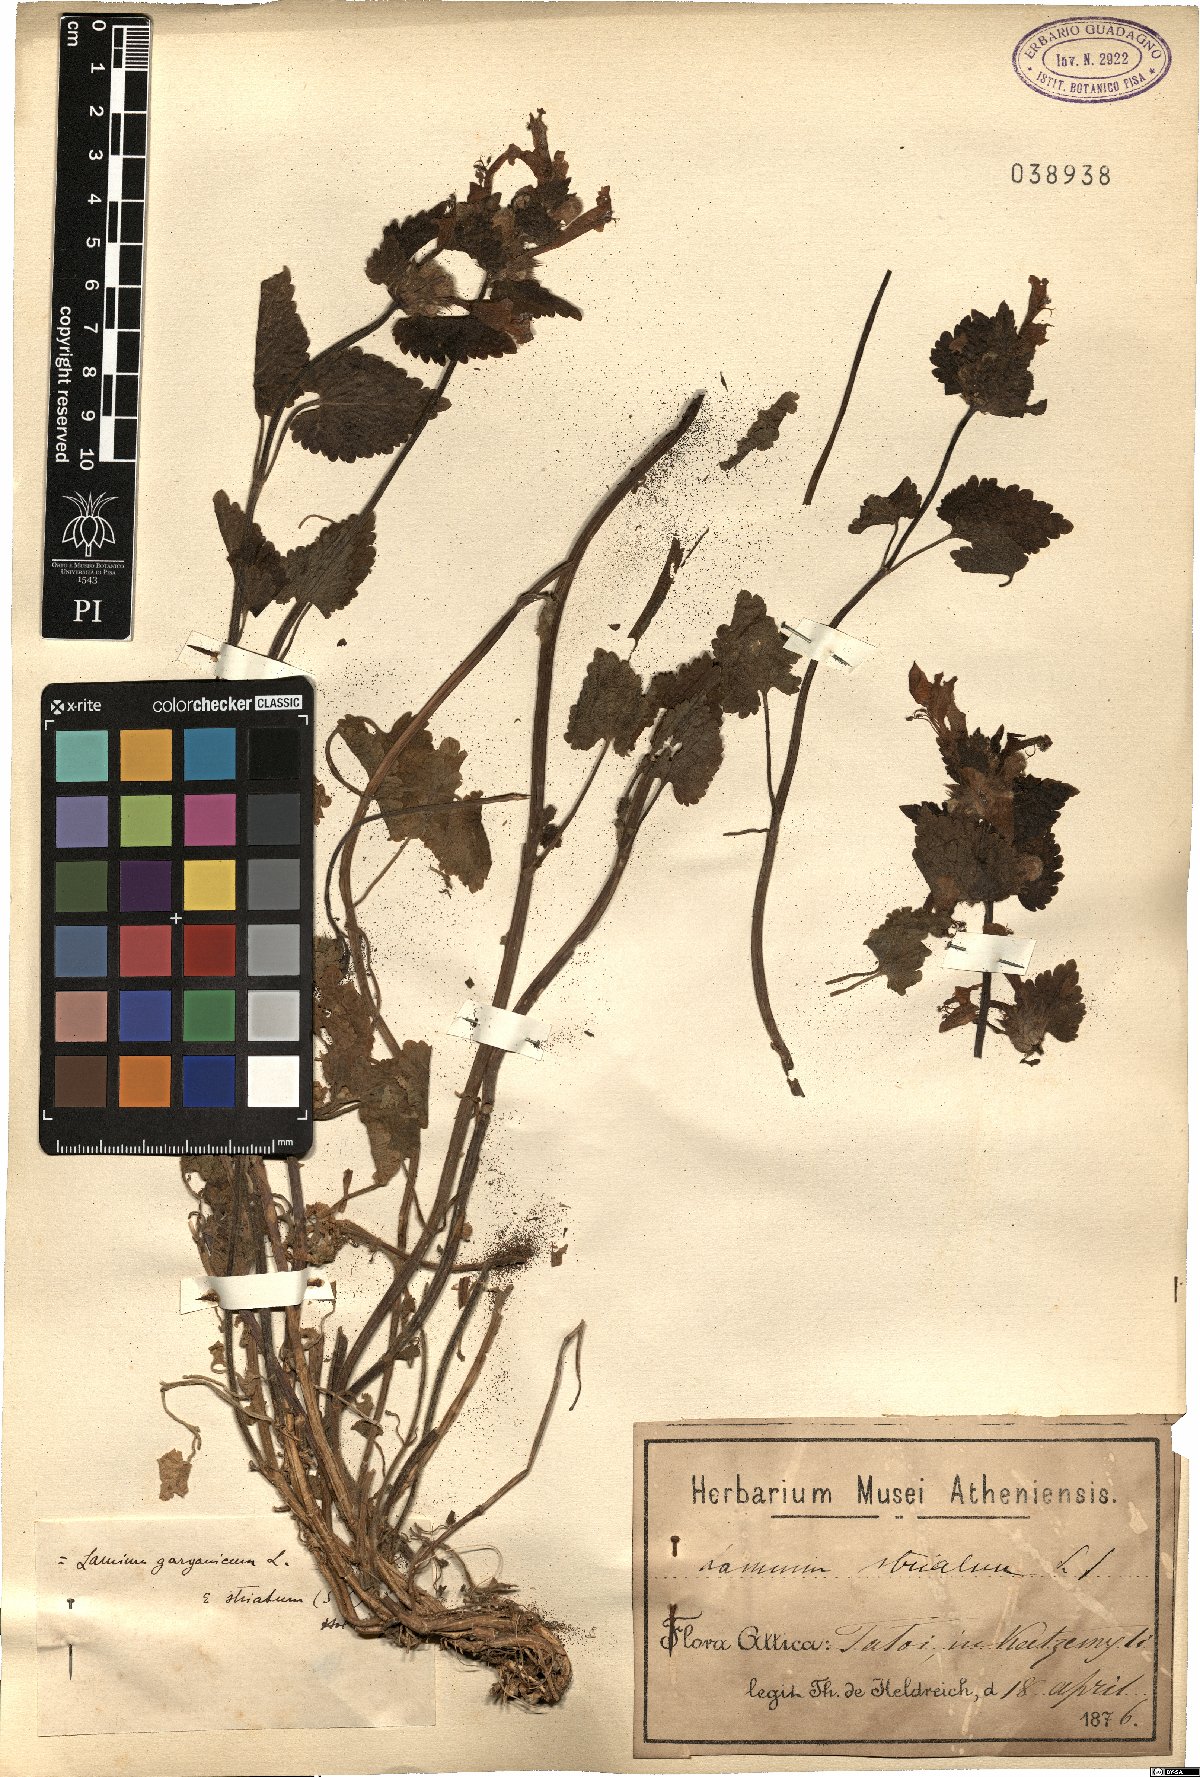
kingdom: Plantae
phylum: Tracheophyta
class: Magnoliopsida
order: Lamiales
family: Lamiaceae
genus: Lamium
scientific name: Lamium garganicum
